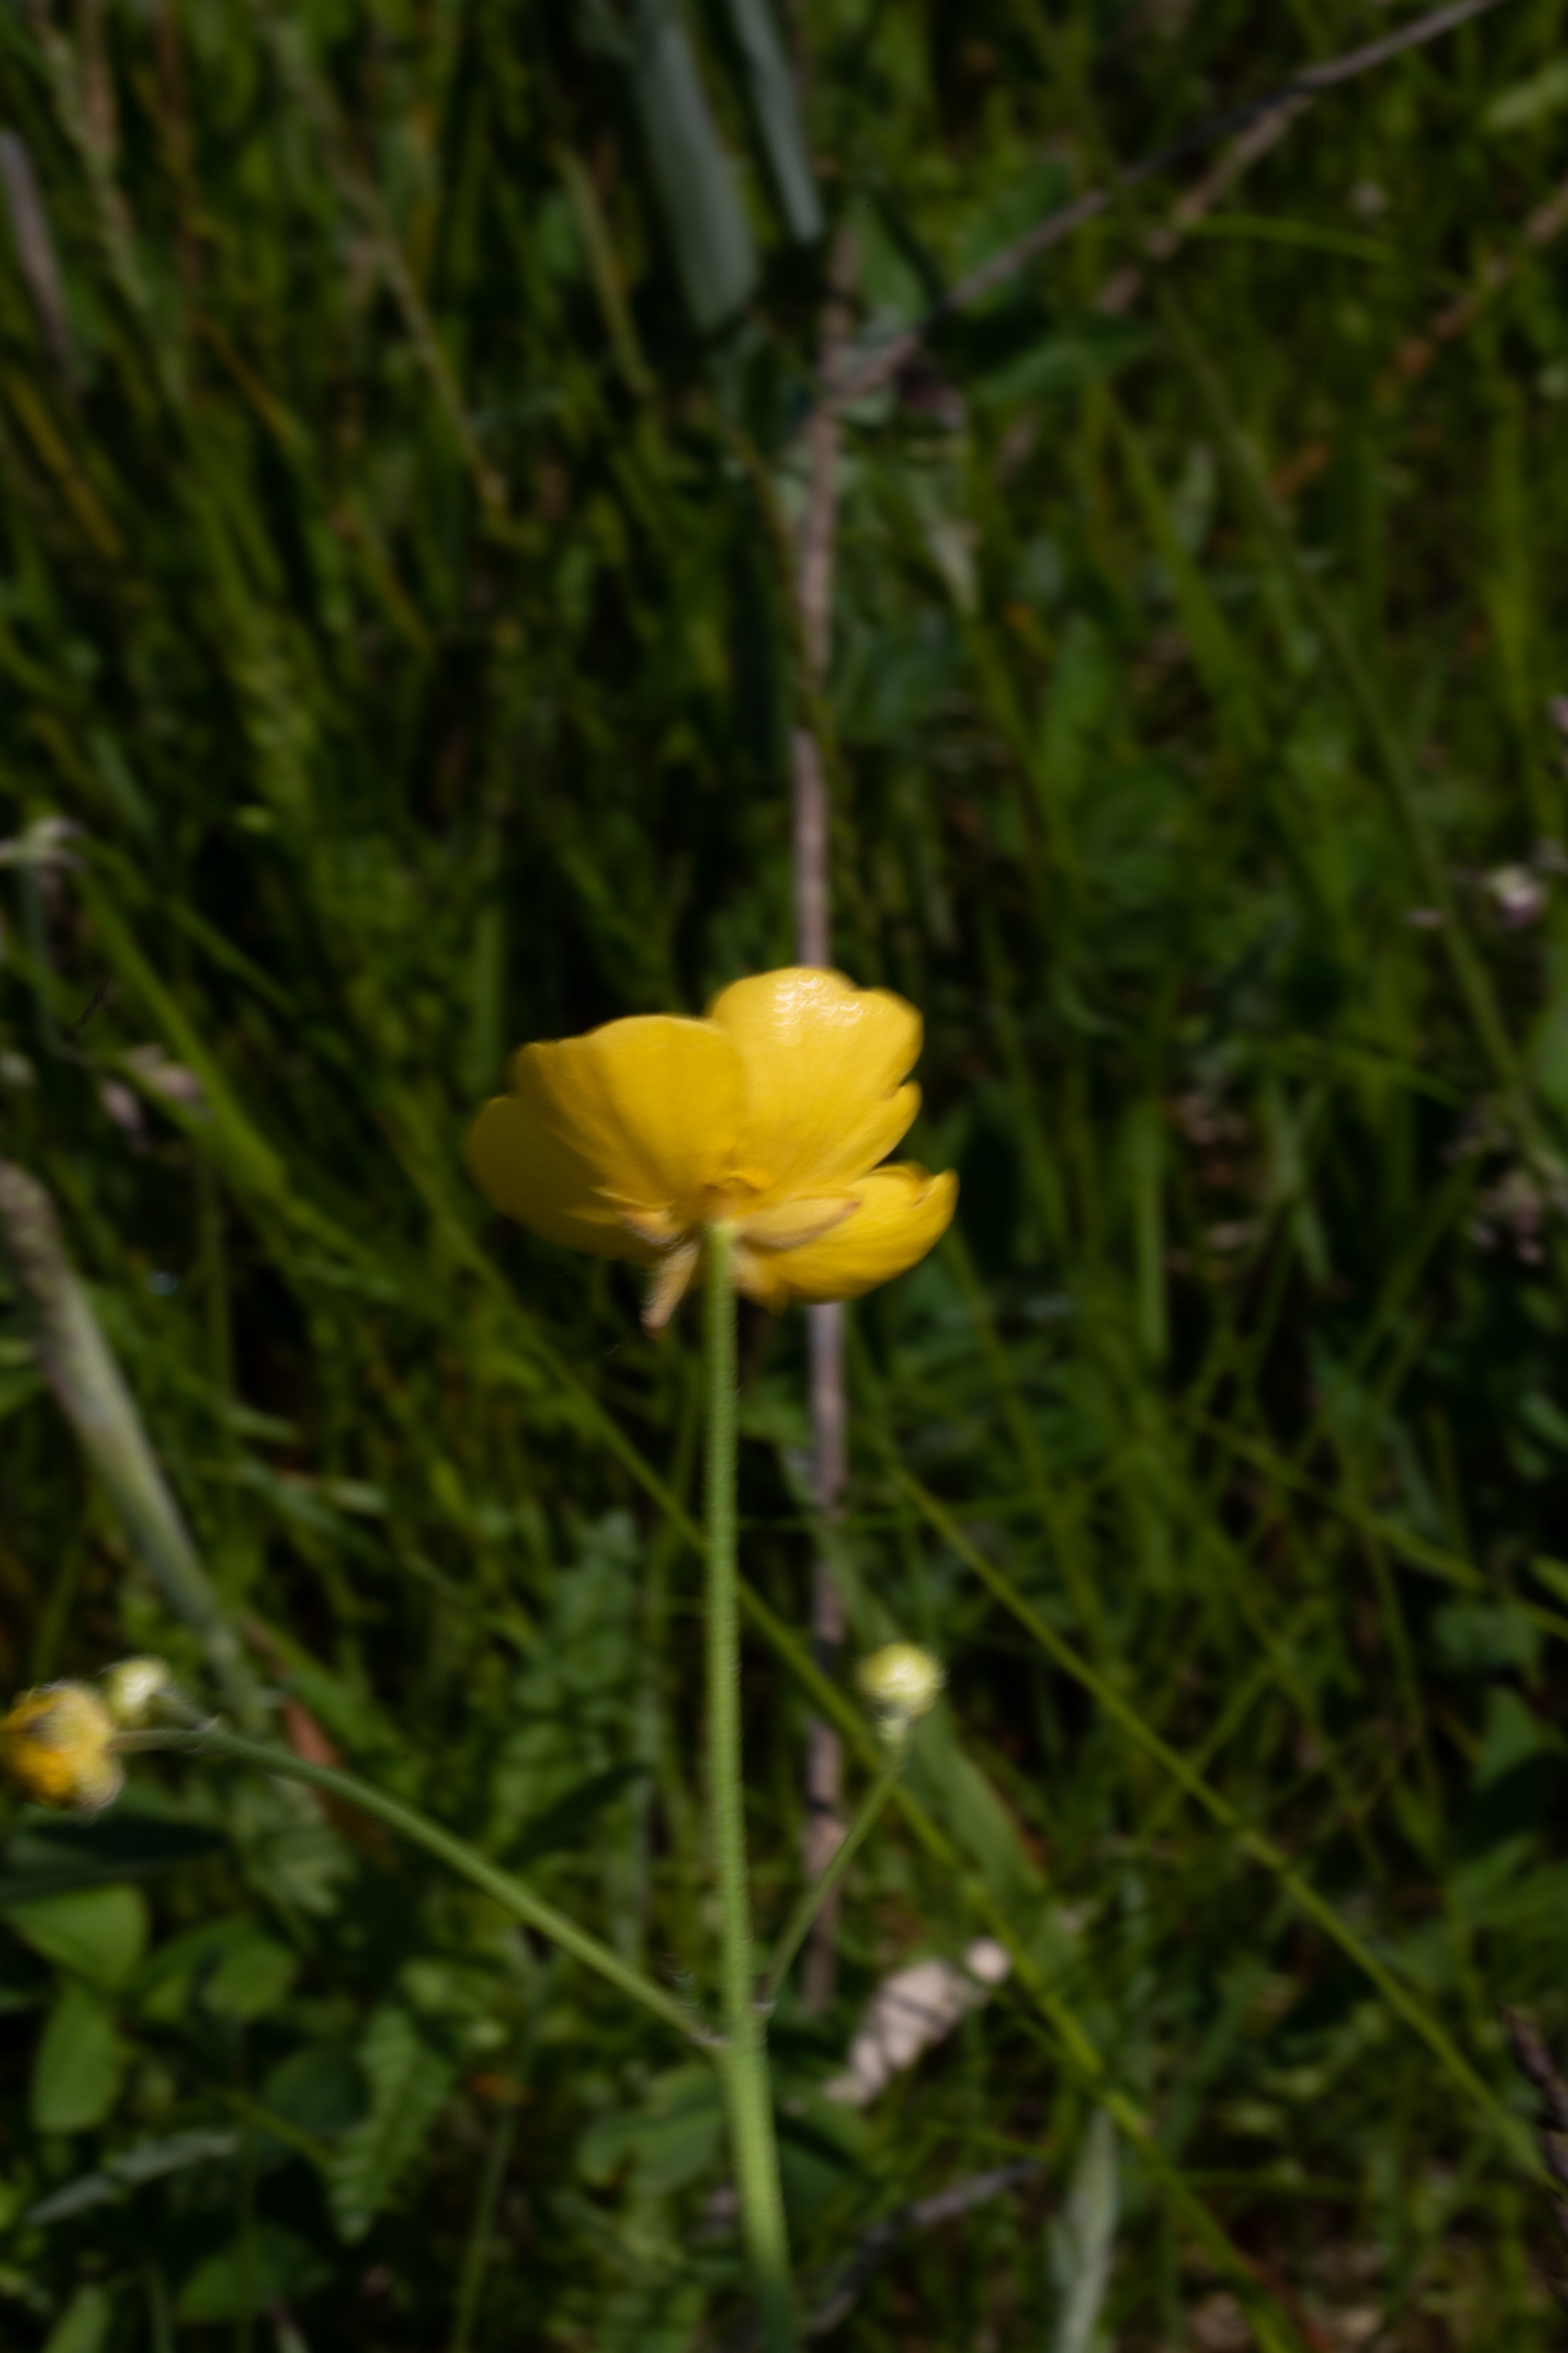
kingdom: Plantae
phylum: Tracheophyta
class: Magnoliopsida
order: Ranunculales
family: Ranunculaceae
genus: Ranunculus
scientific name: Ranunculus acris
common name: Bidende ranunkel
